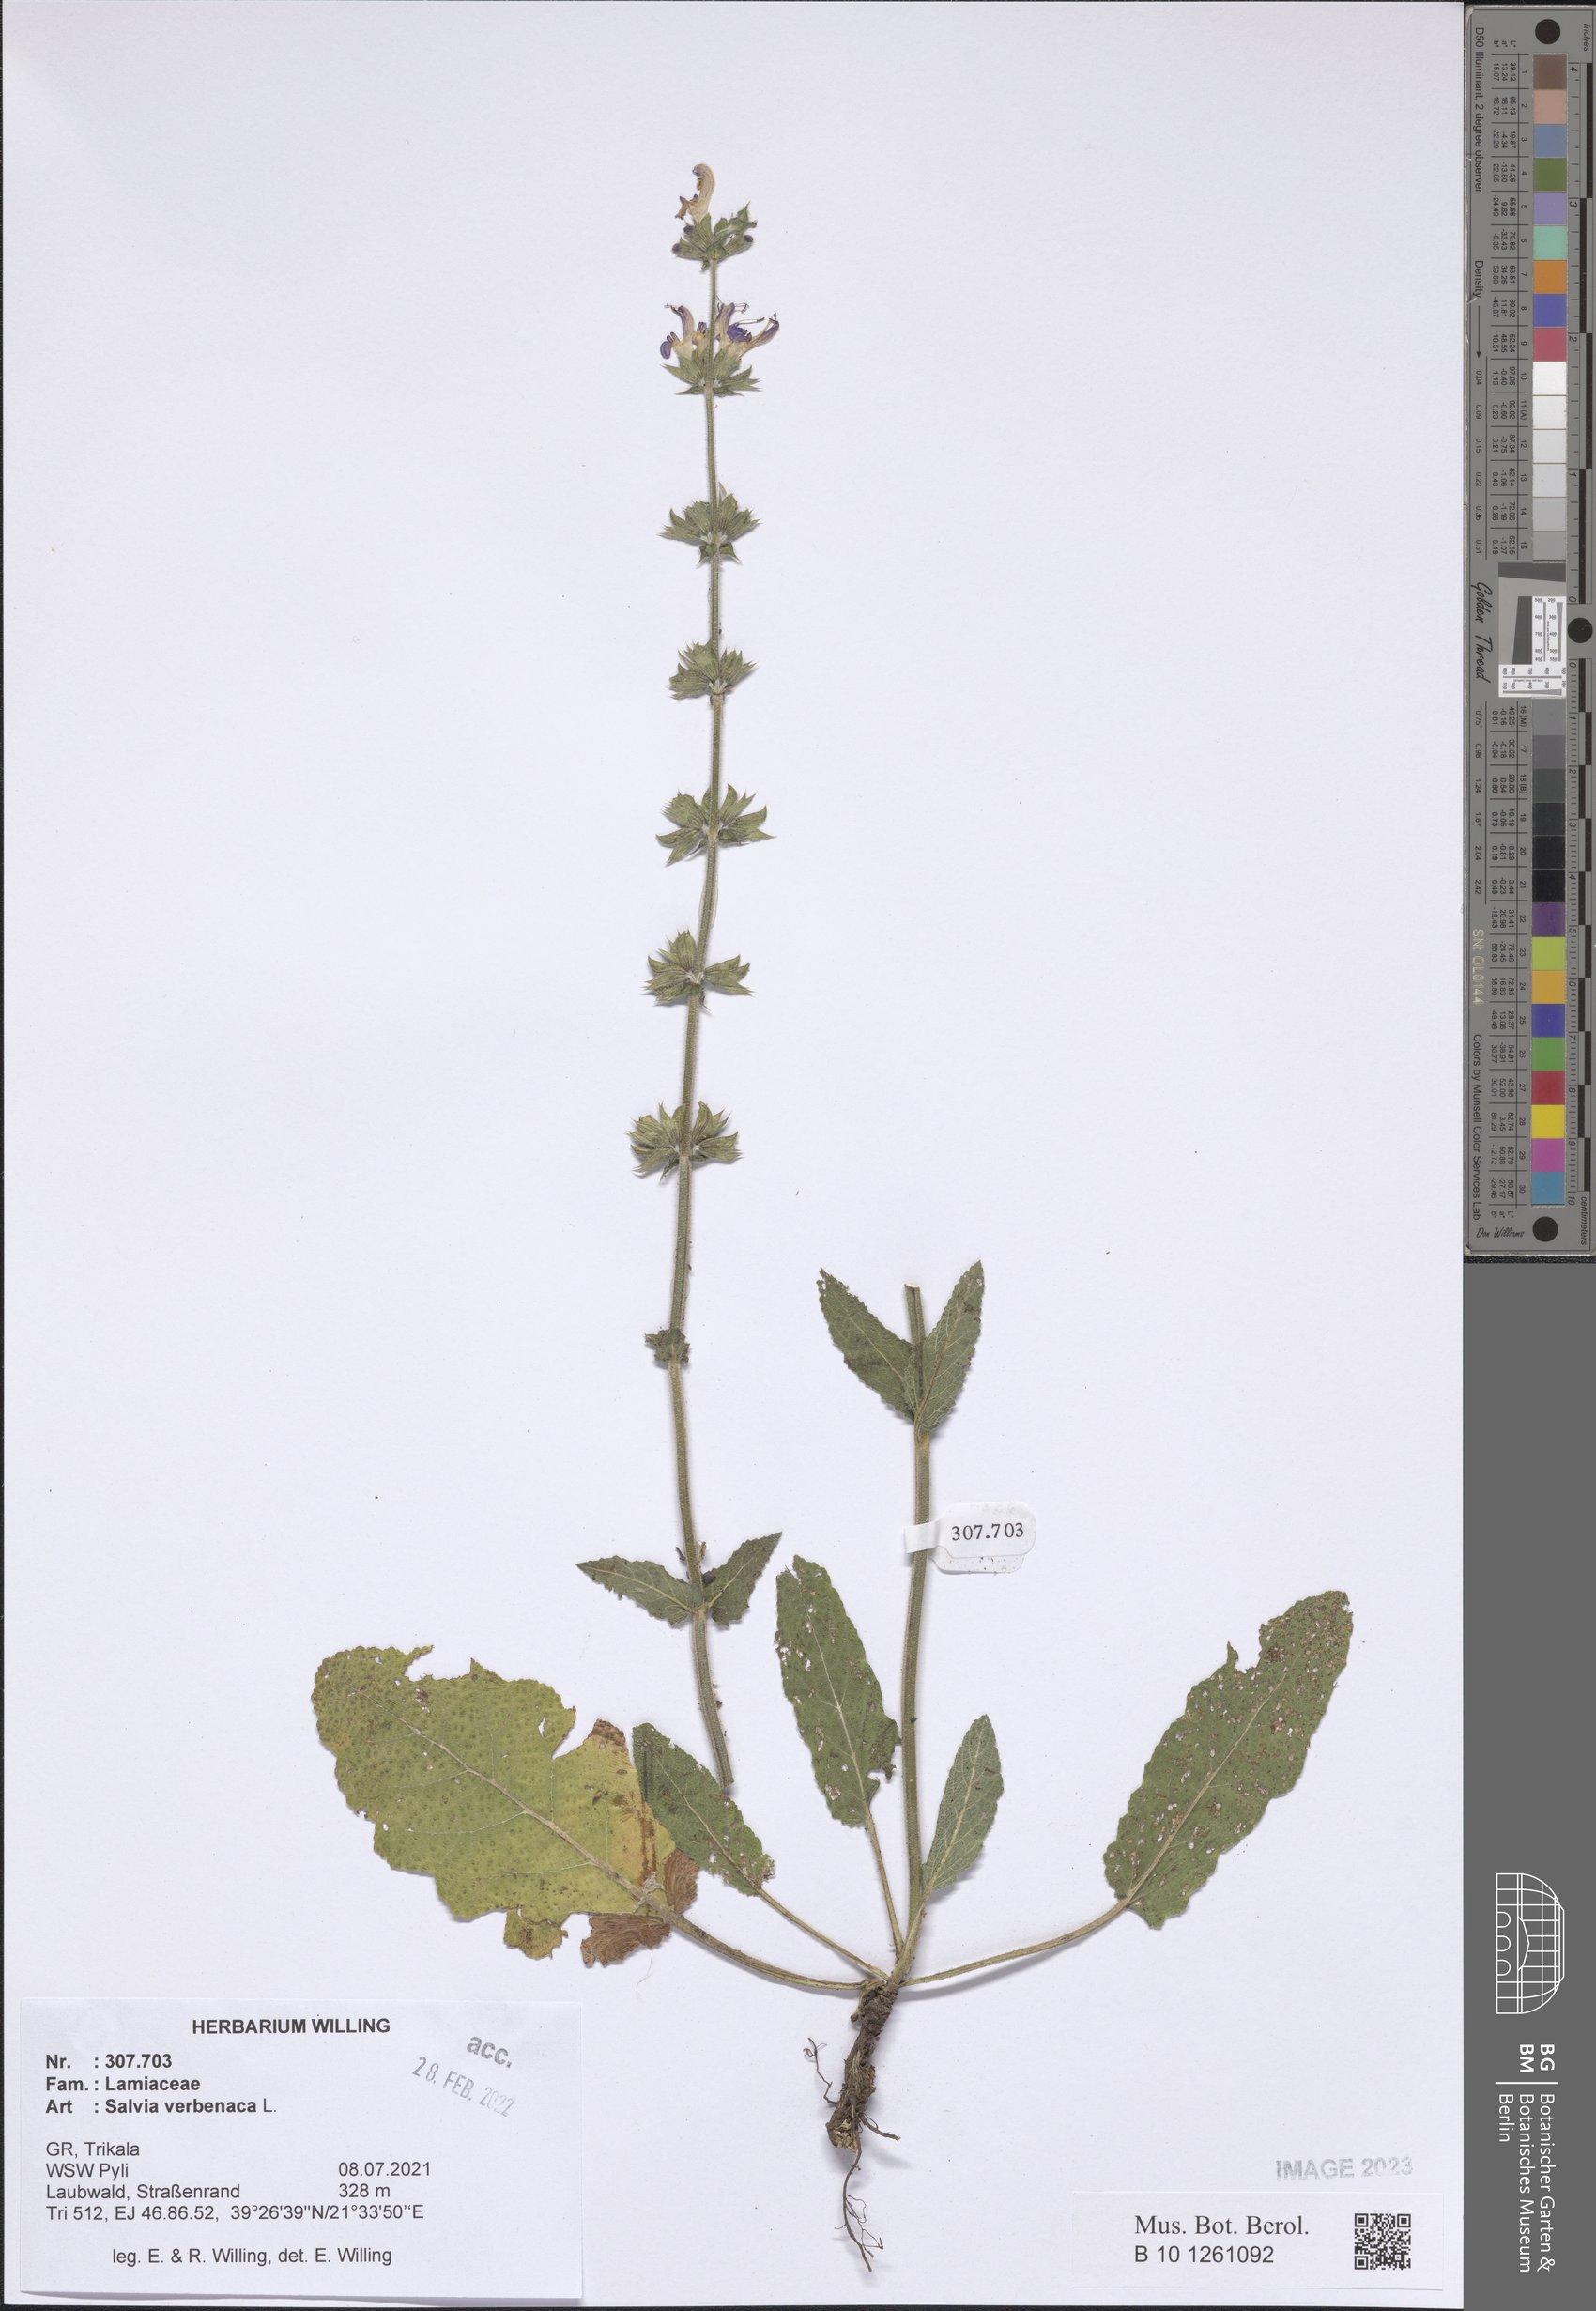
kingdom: Plantae
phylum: Tracheophyta
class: Magnoliopsida
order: Lamiales
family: Lamiaceae
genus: Salvia
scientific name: Salvia verbenaca
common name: Wild clary
